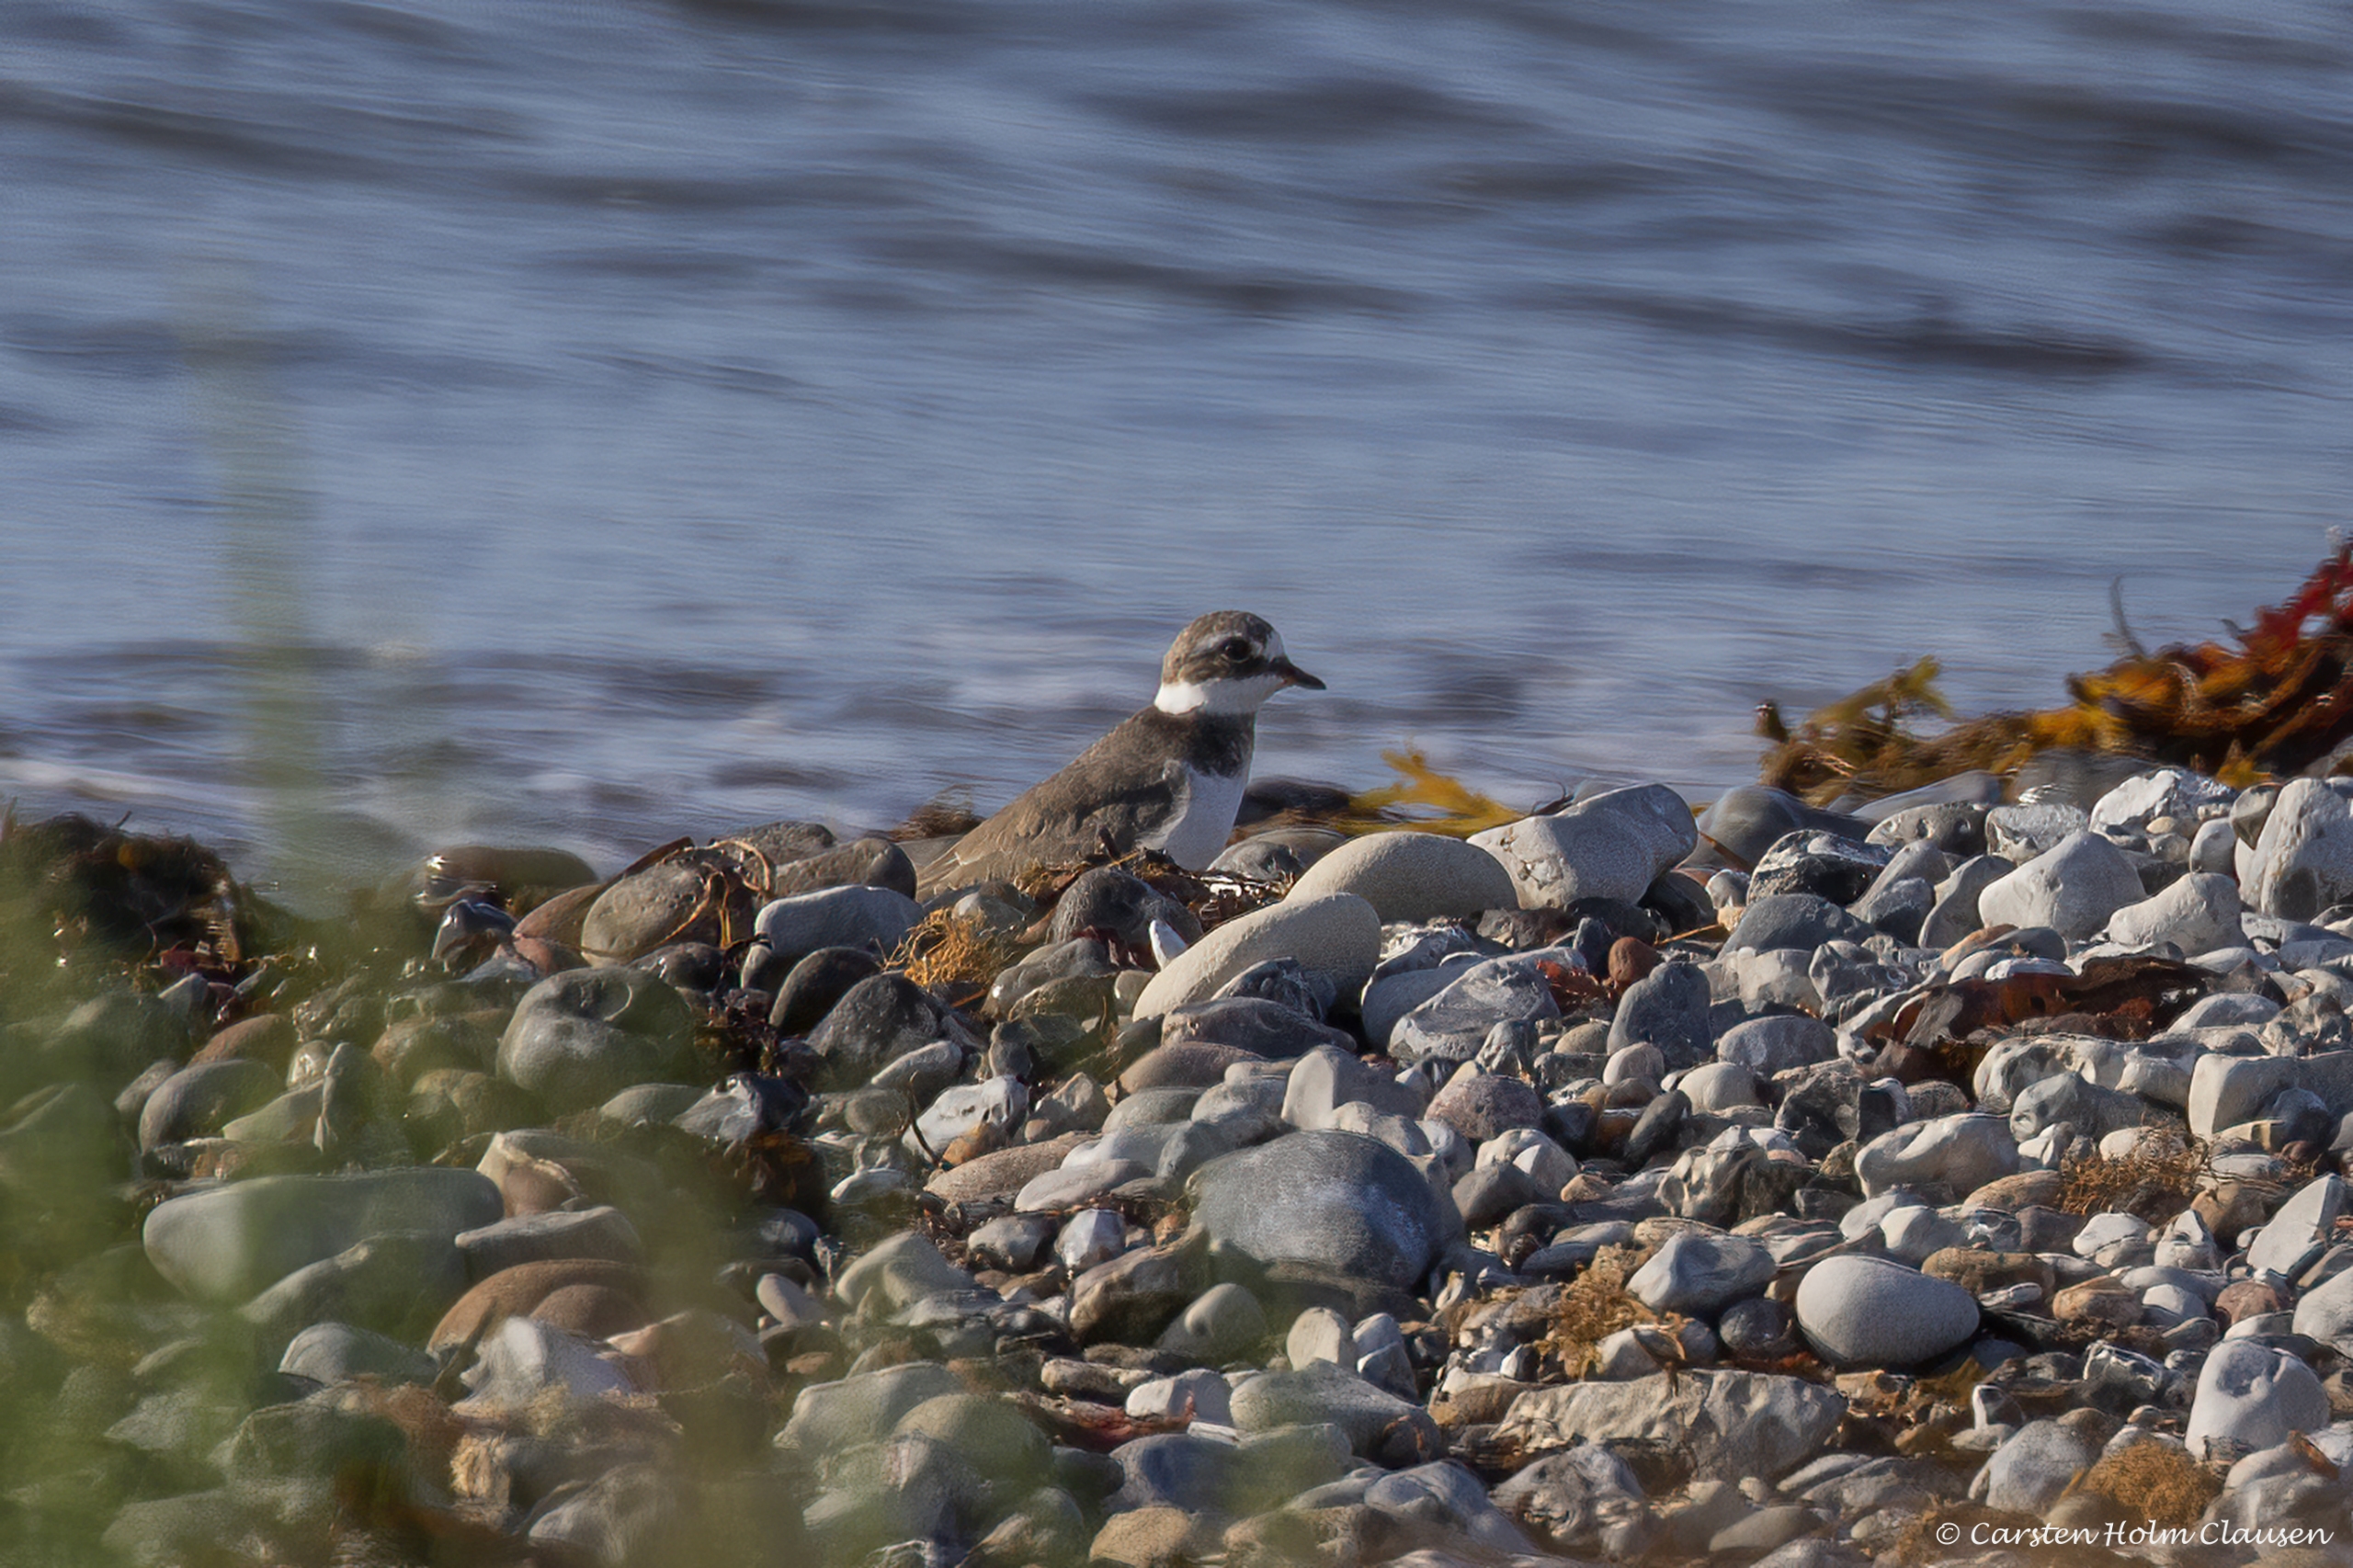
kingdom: Animalia
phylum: Chordata
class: Aves
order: Charadriiformes
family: Charadriidae
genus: Charadrius
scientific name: Charadrius hiaticula
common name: Stor præstekrave
